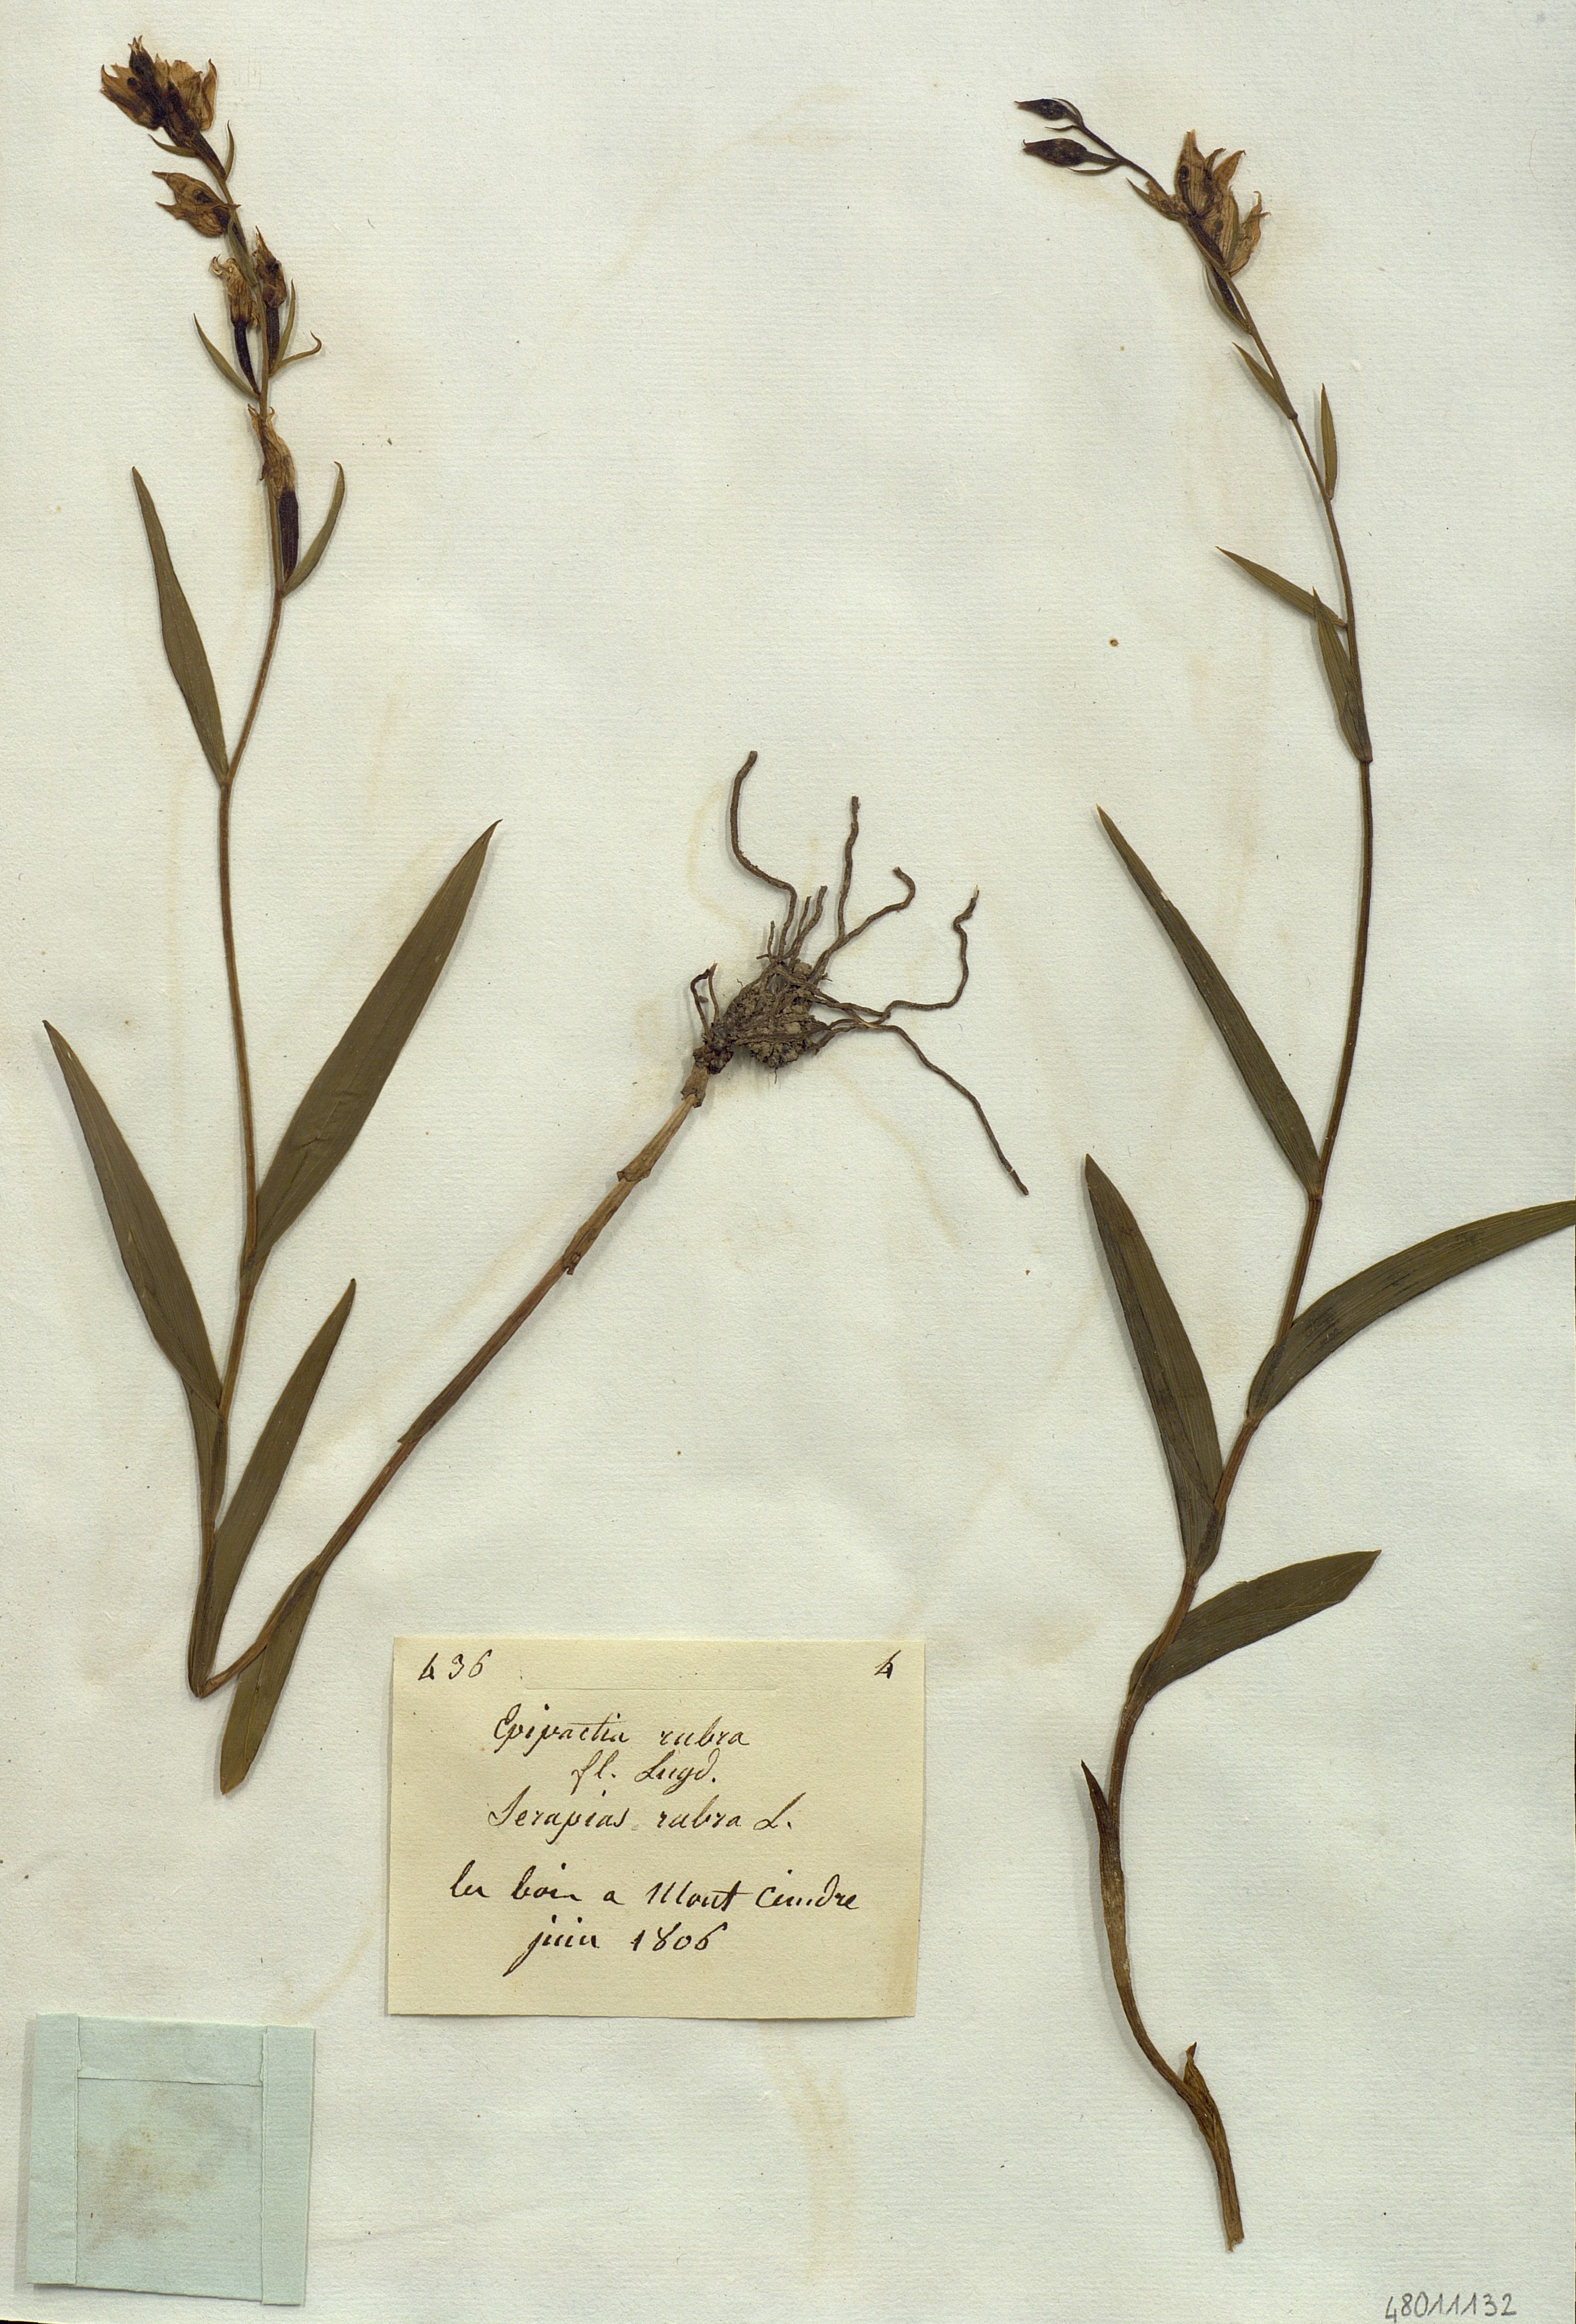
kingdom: Plantae
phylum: Tracheophyta
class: Liliopsida
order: Asparagales
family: Orchidaceae
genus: Cephalanthera
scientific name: Cephalanthera rubra
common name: Red helleborine
